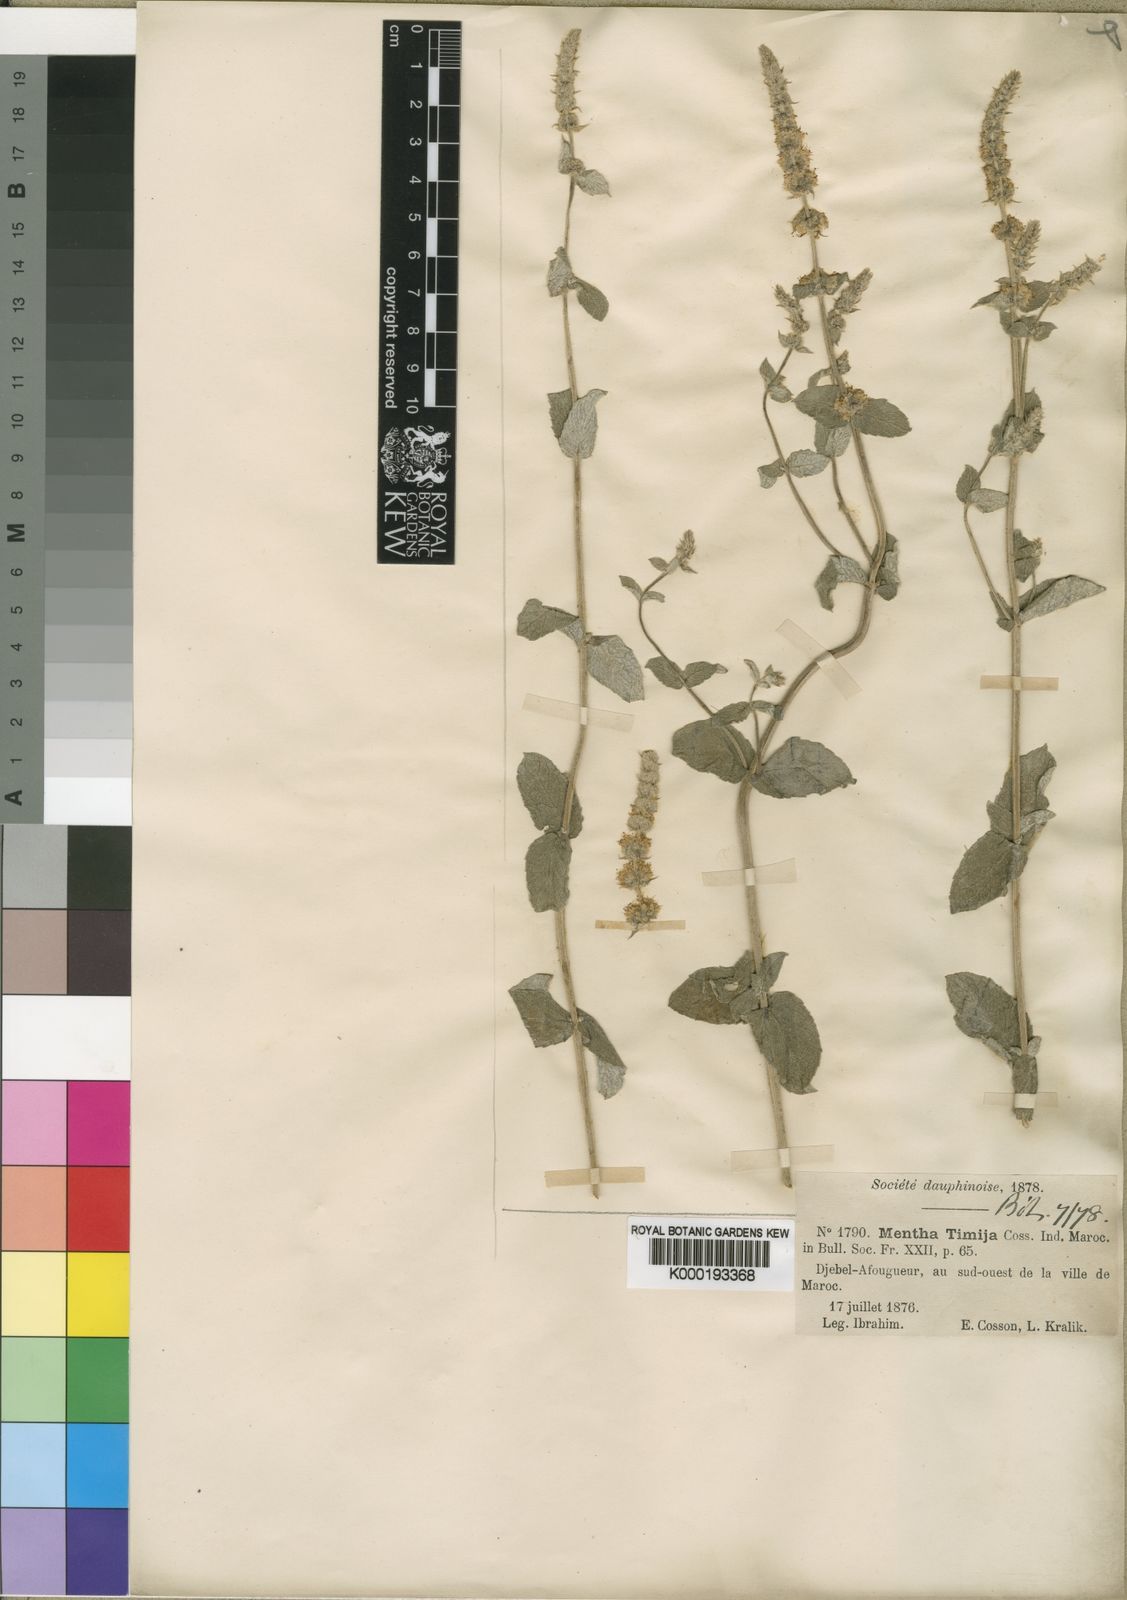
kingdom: Plantae
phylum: Tracheophyta
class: Magnoliopsida
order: Lamiales
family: Lamiaceae
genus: Mentha
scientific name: Mentha
